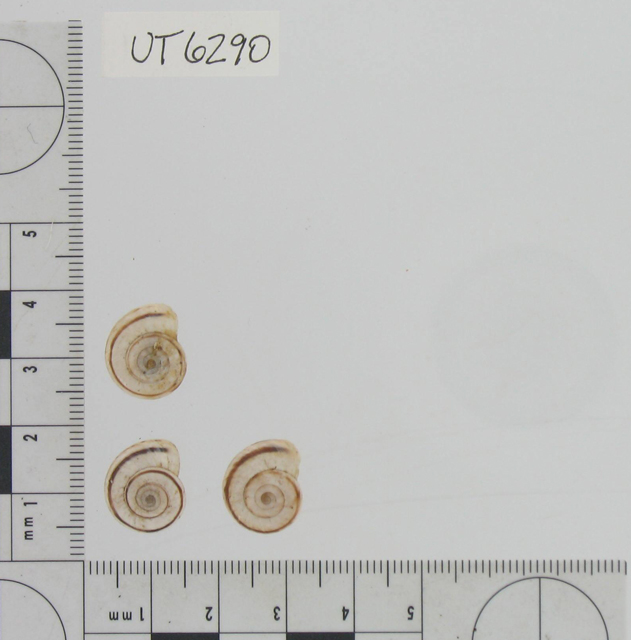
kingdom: Animalia
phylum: Mollusca
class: Gastropoda
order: Stylommatophora
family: Geomitridae
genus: Xerolenta
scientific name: Xerolenta obvia
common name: White heath snail
